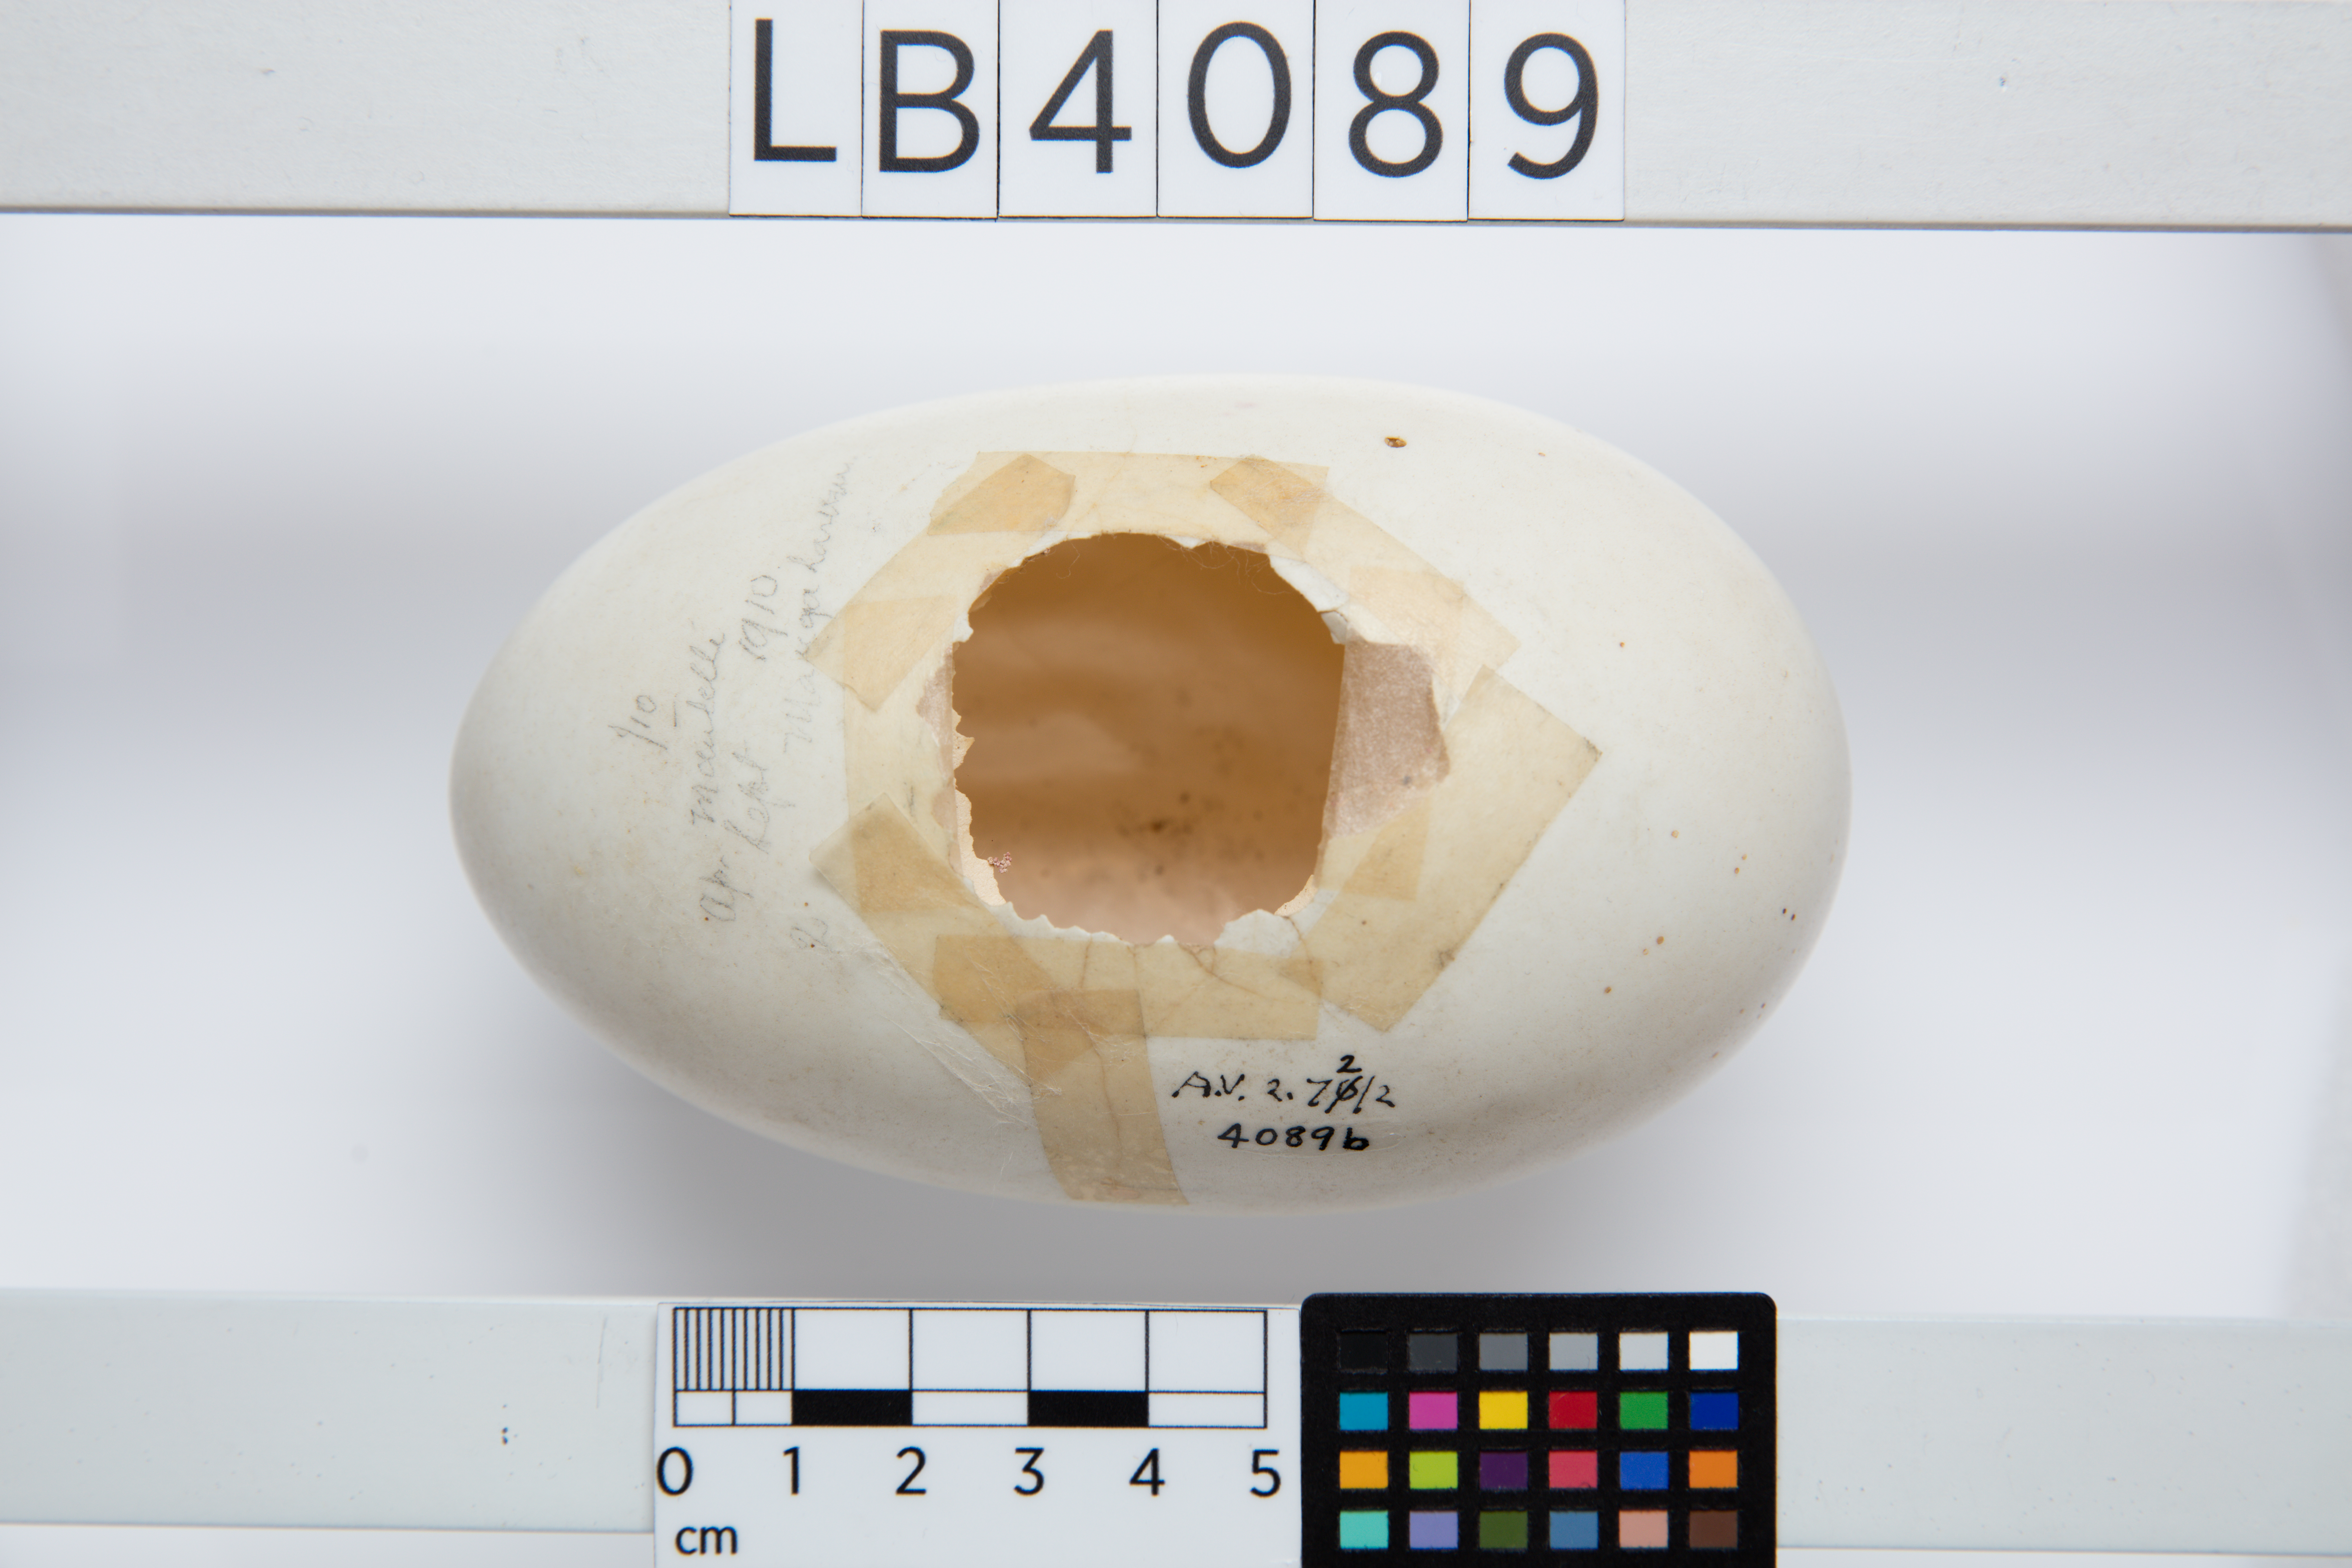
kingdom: Animalia
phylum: Chordata
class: Aves
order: Apterygiformes
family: Apterygidae
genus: Apteryx
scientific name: Apteryx mantelli
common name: North island brown kiwi
